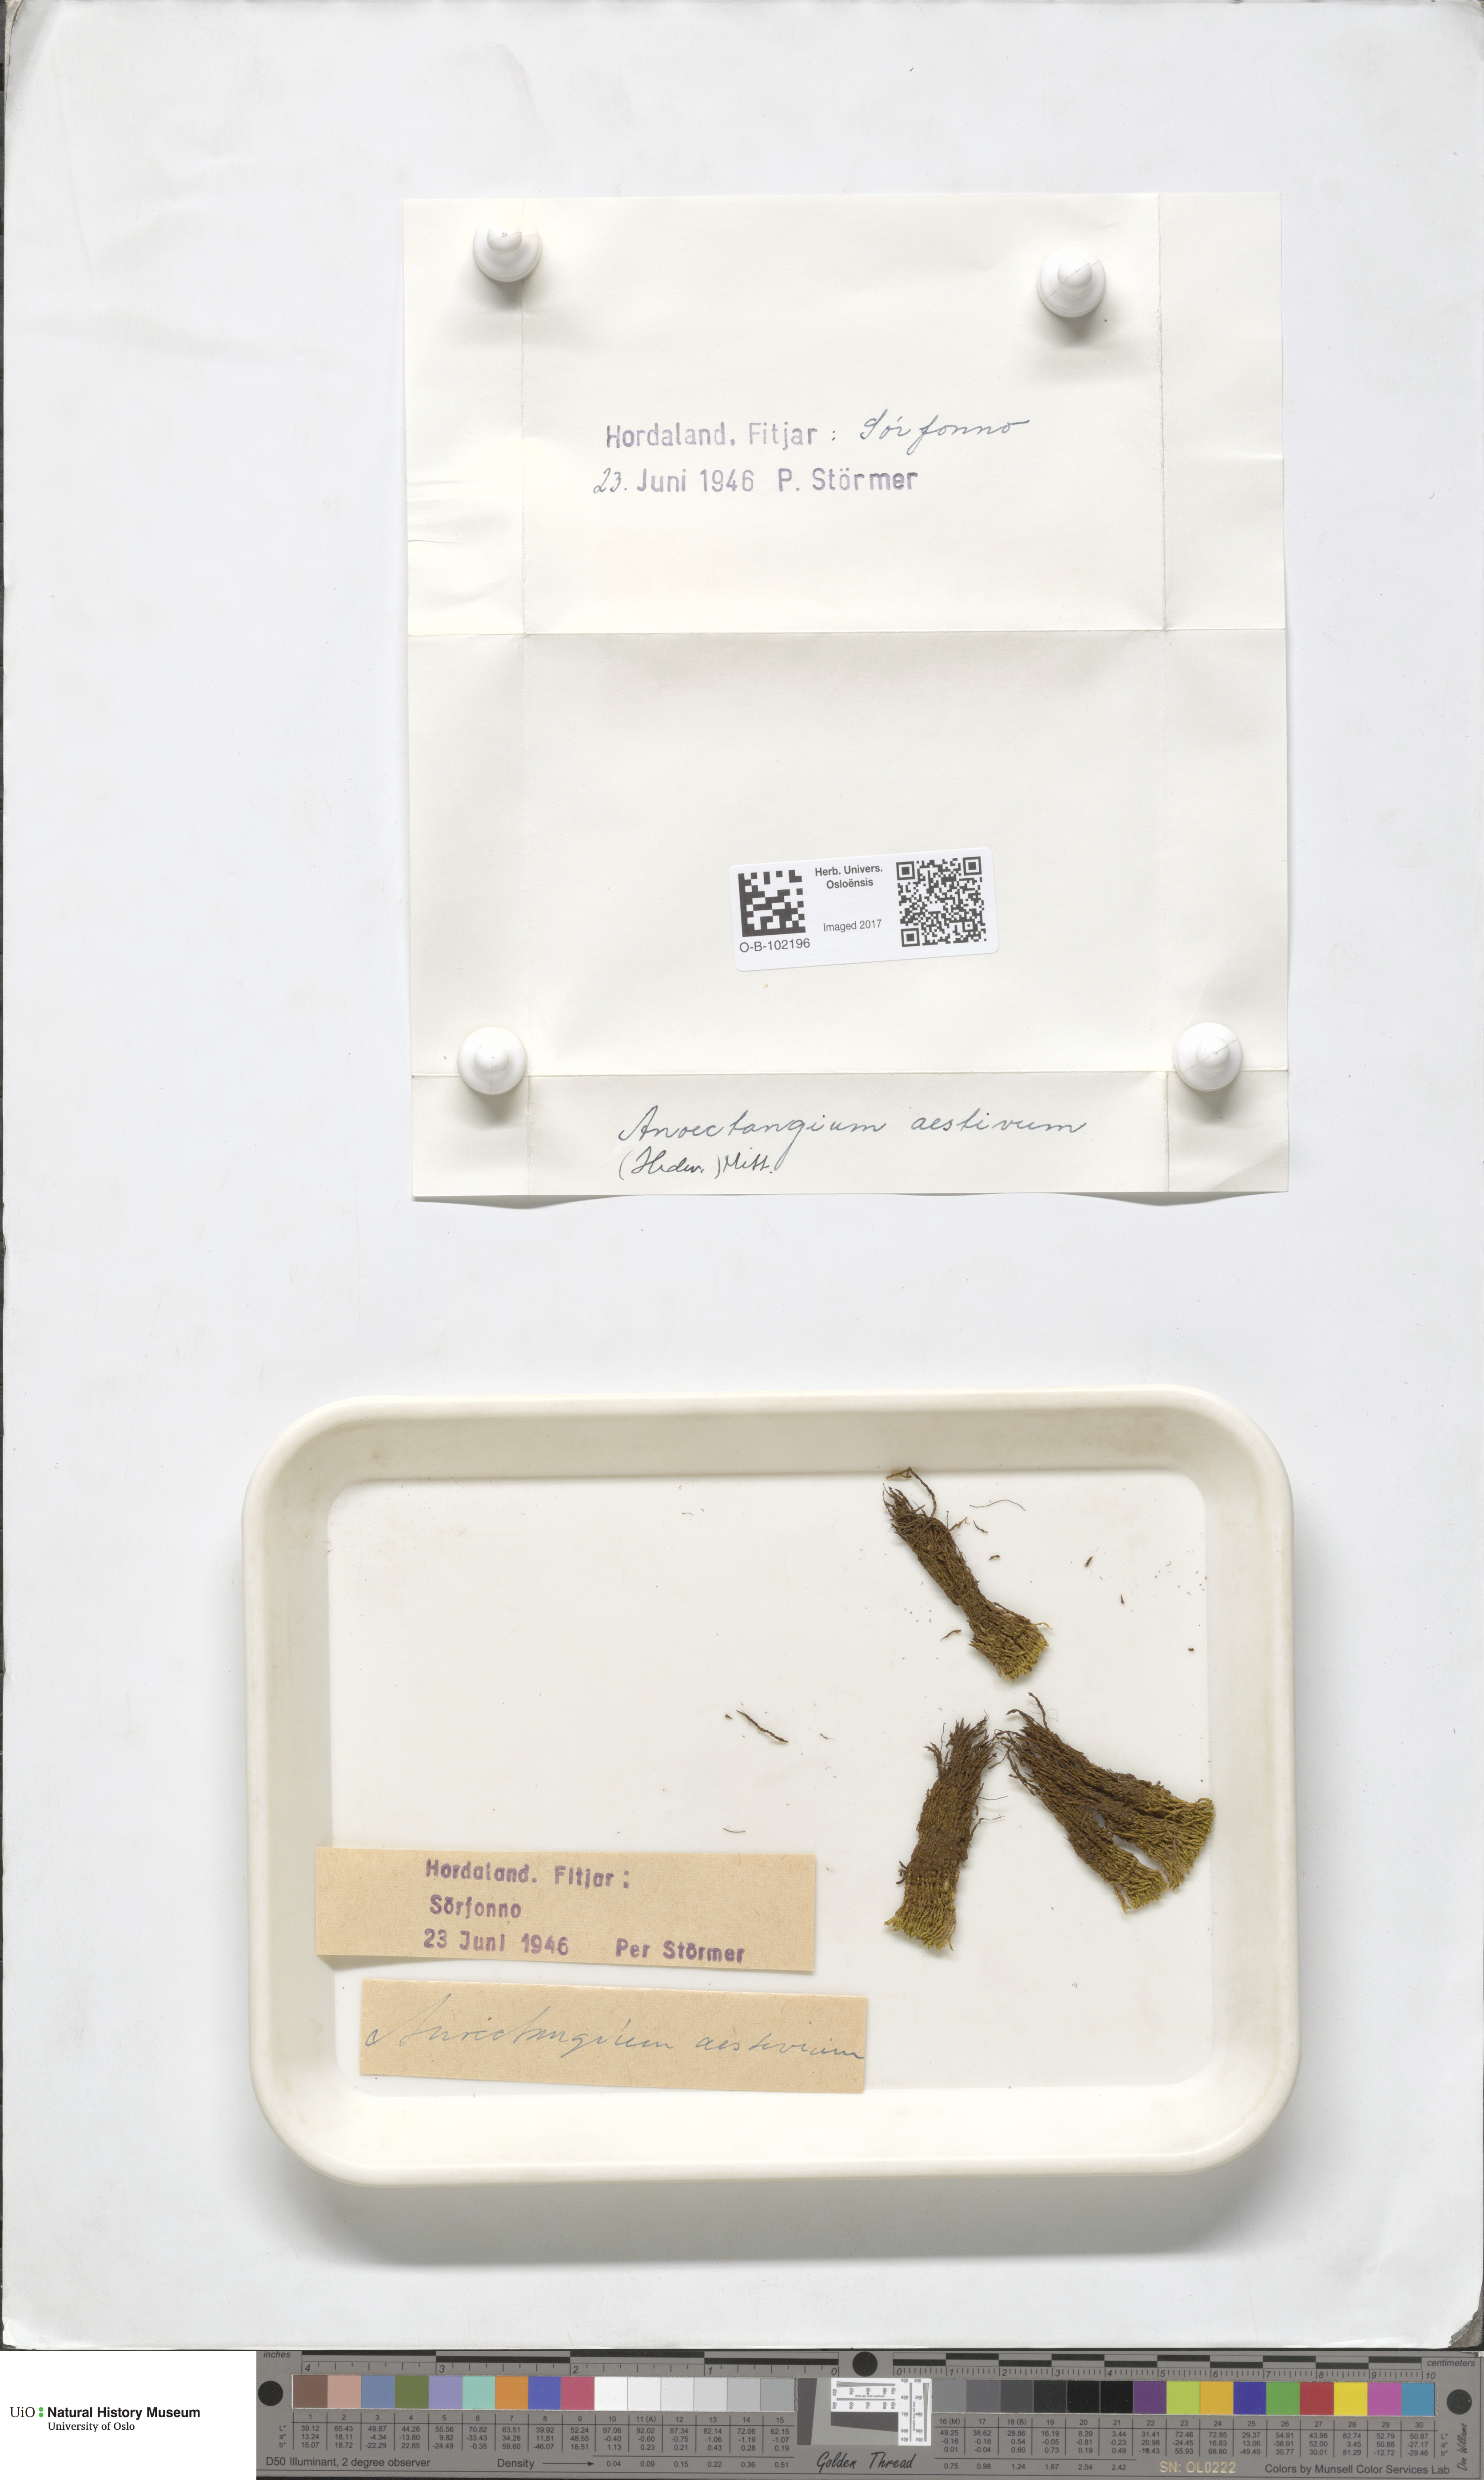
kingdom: Plantae
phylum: Bryophyta
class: Bryopsida
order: Pottiales
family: Pottiaceae
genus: Anoectangium
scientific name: Anoectangium aestivum
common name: Summer-moss
